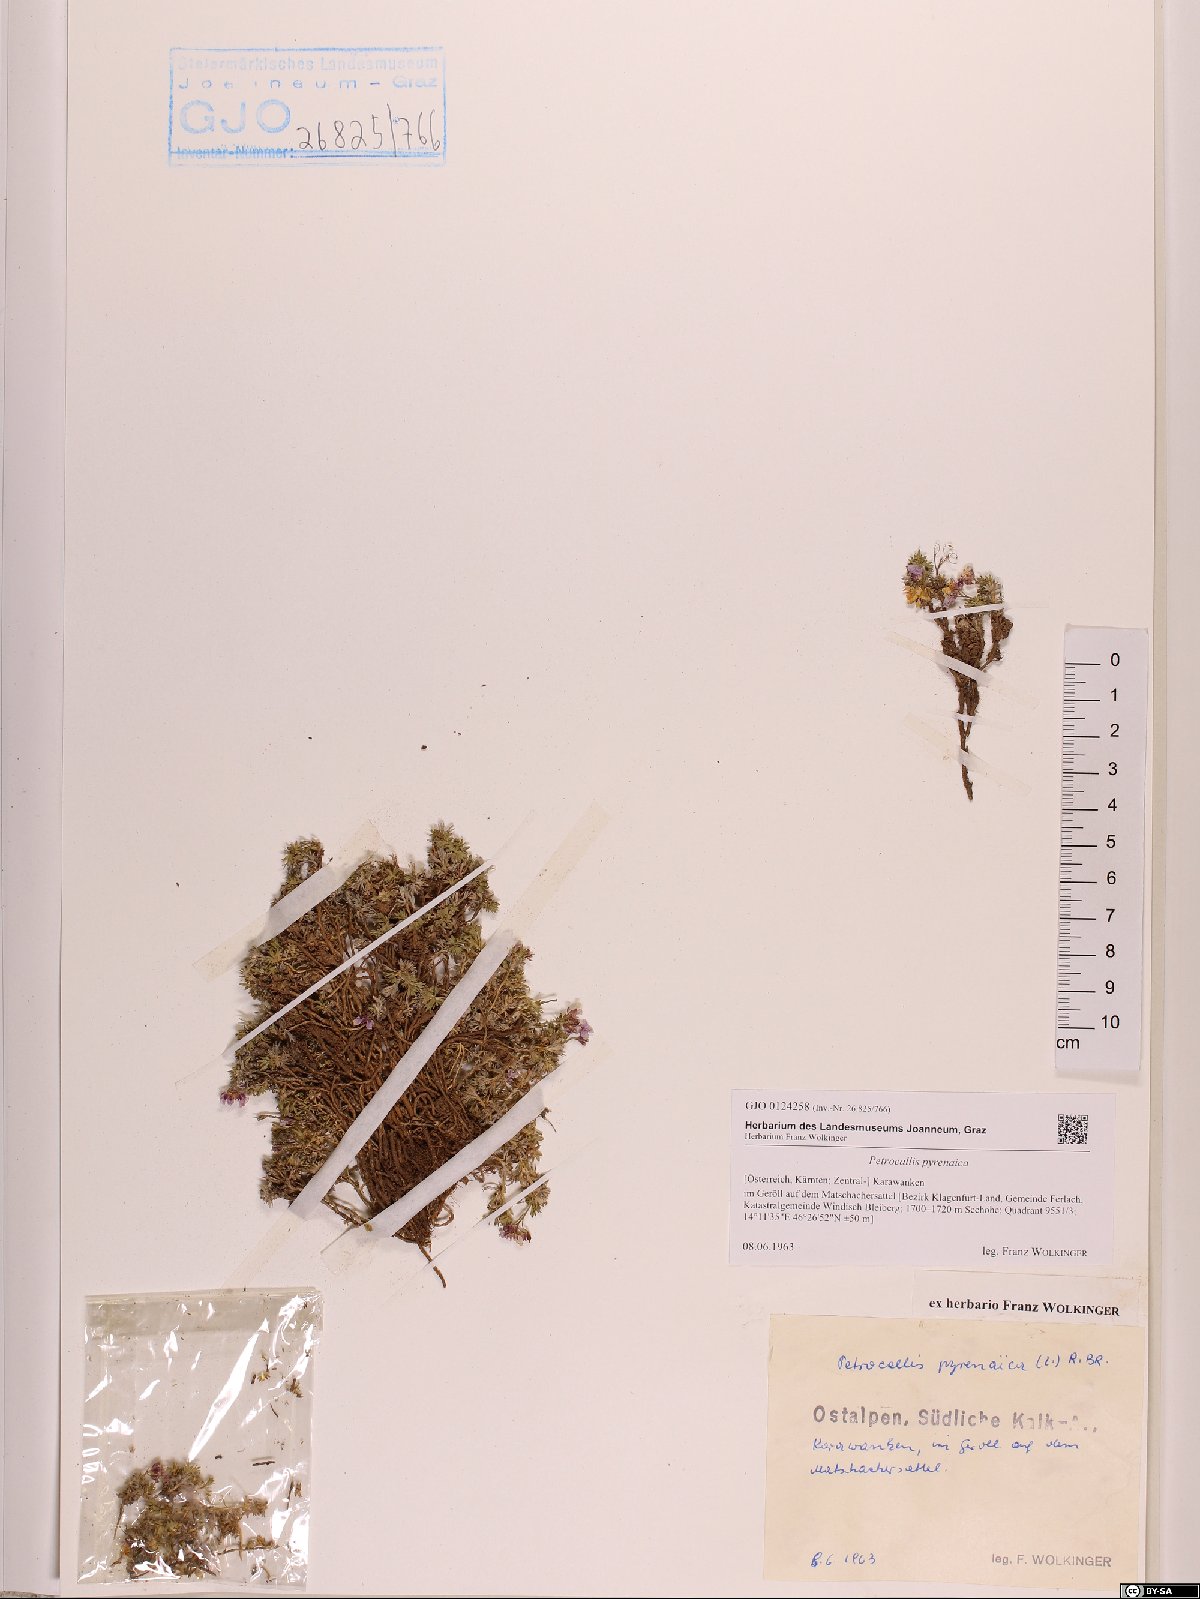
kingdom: Plantae
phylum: Tracheophyta
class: Magnoliopsida
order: Brassicales
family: Brassicaceae
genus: Petrocallis
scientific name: Petrocallis pyrenaica
